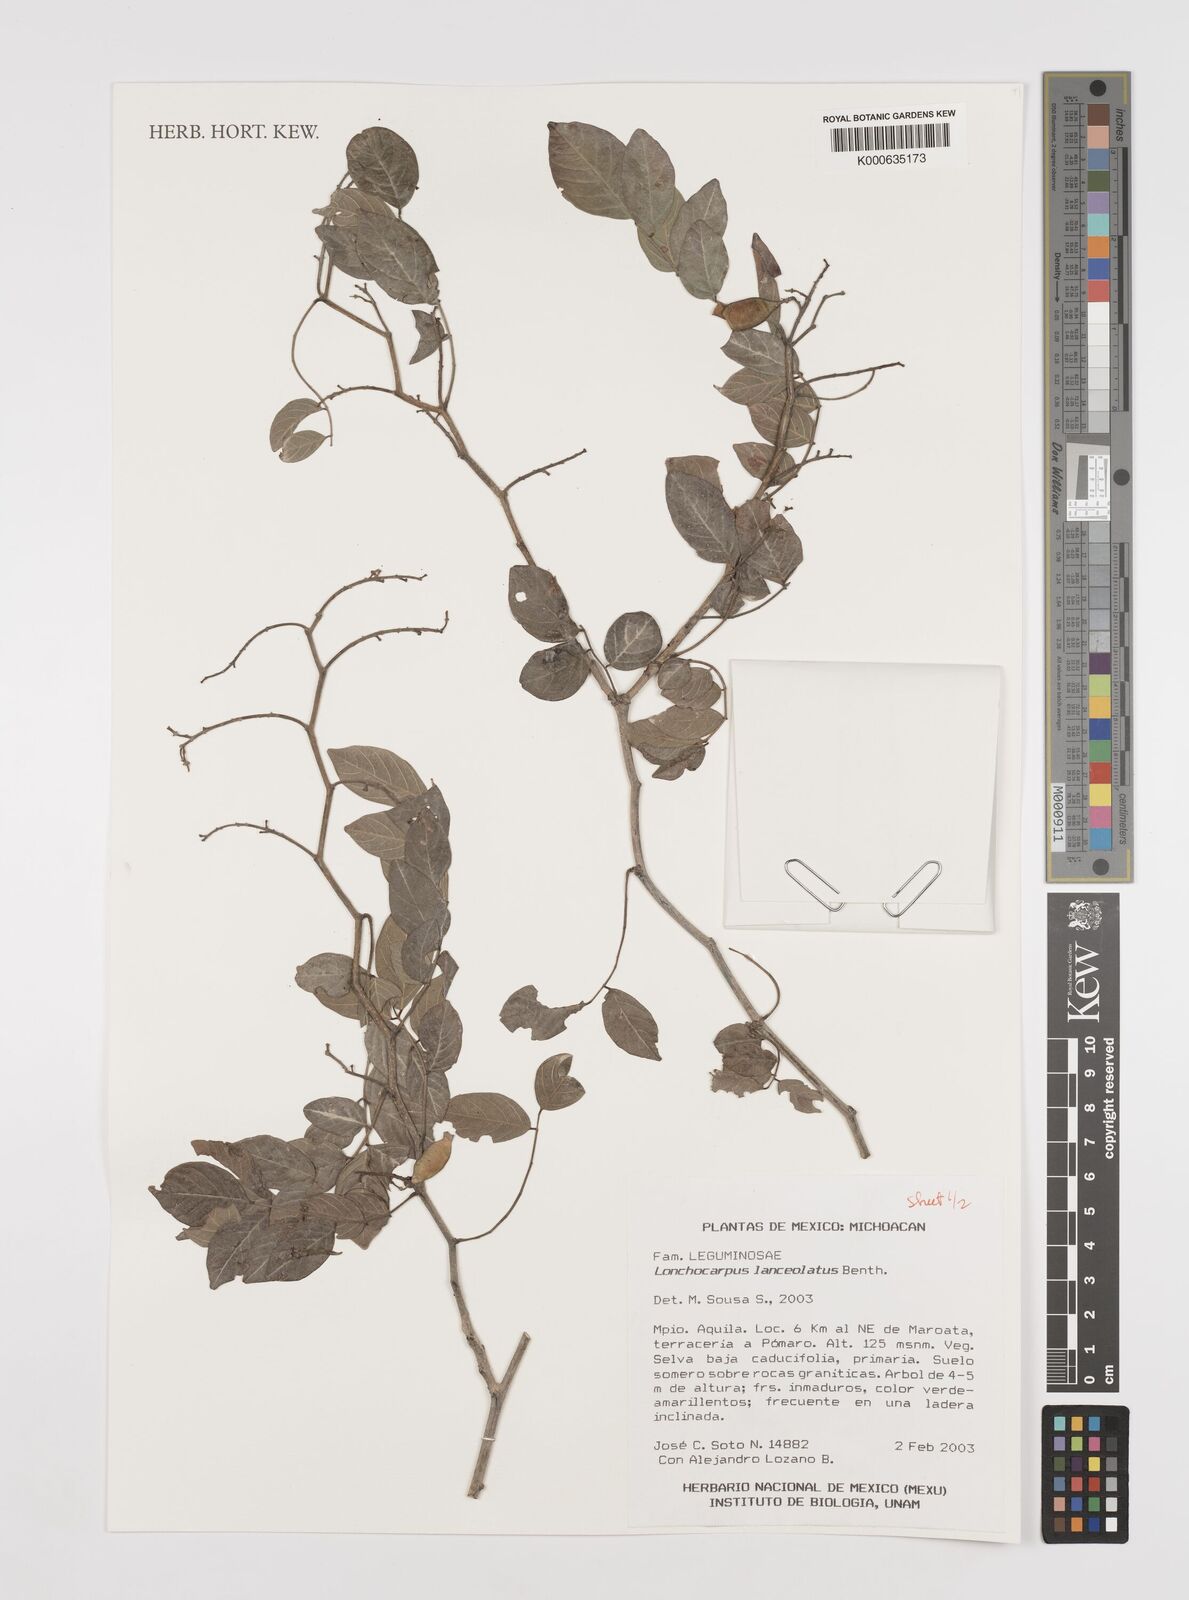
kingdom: Plantae
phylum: Tracheophyta
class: Magnoliopsida
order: Fabales
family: Fabaceae
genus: Lonchocarpus
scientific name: Lonchocarpus lanceolatus
